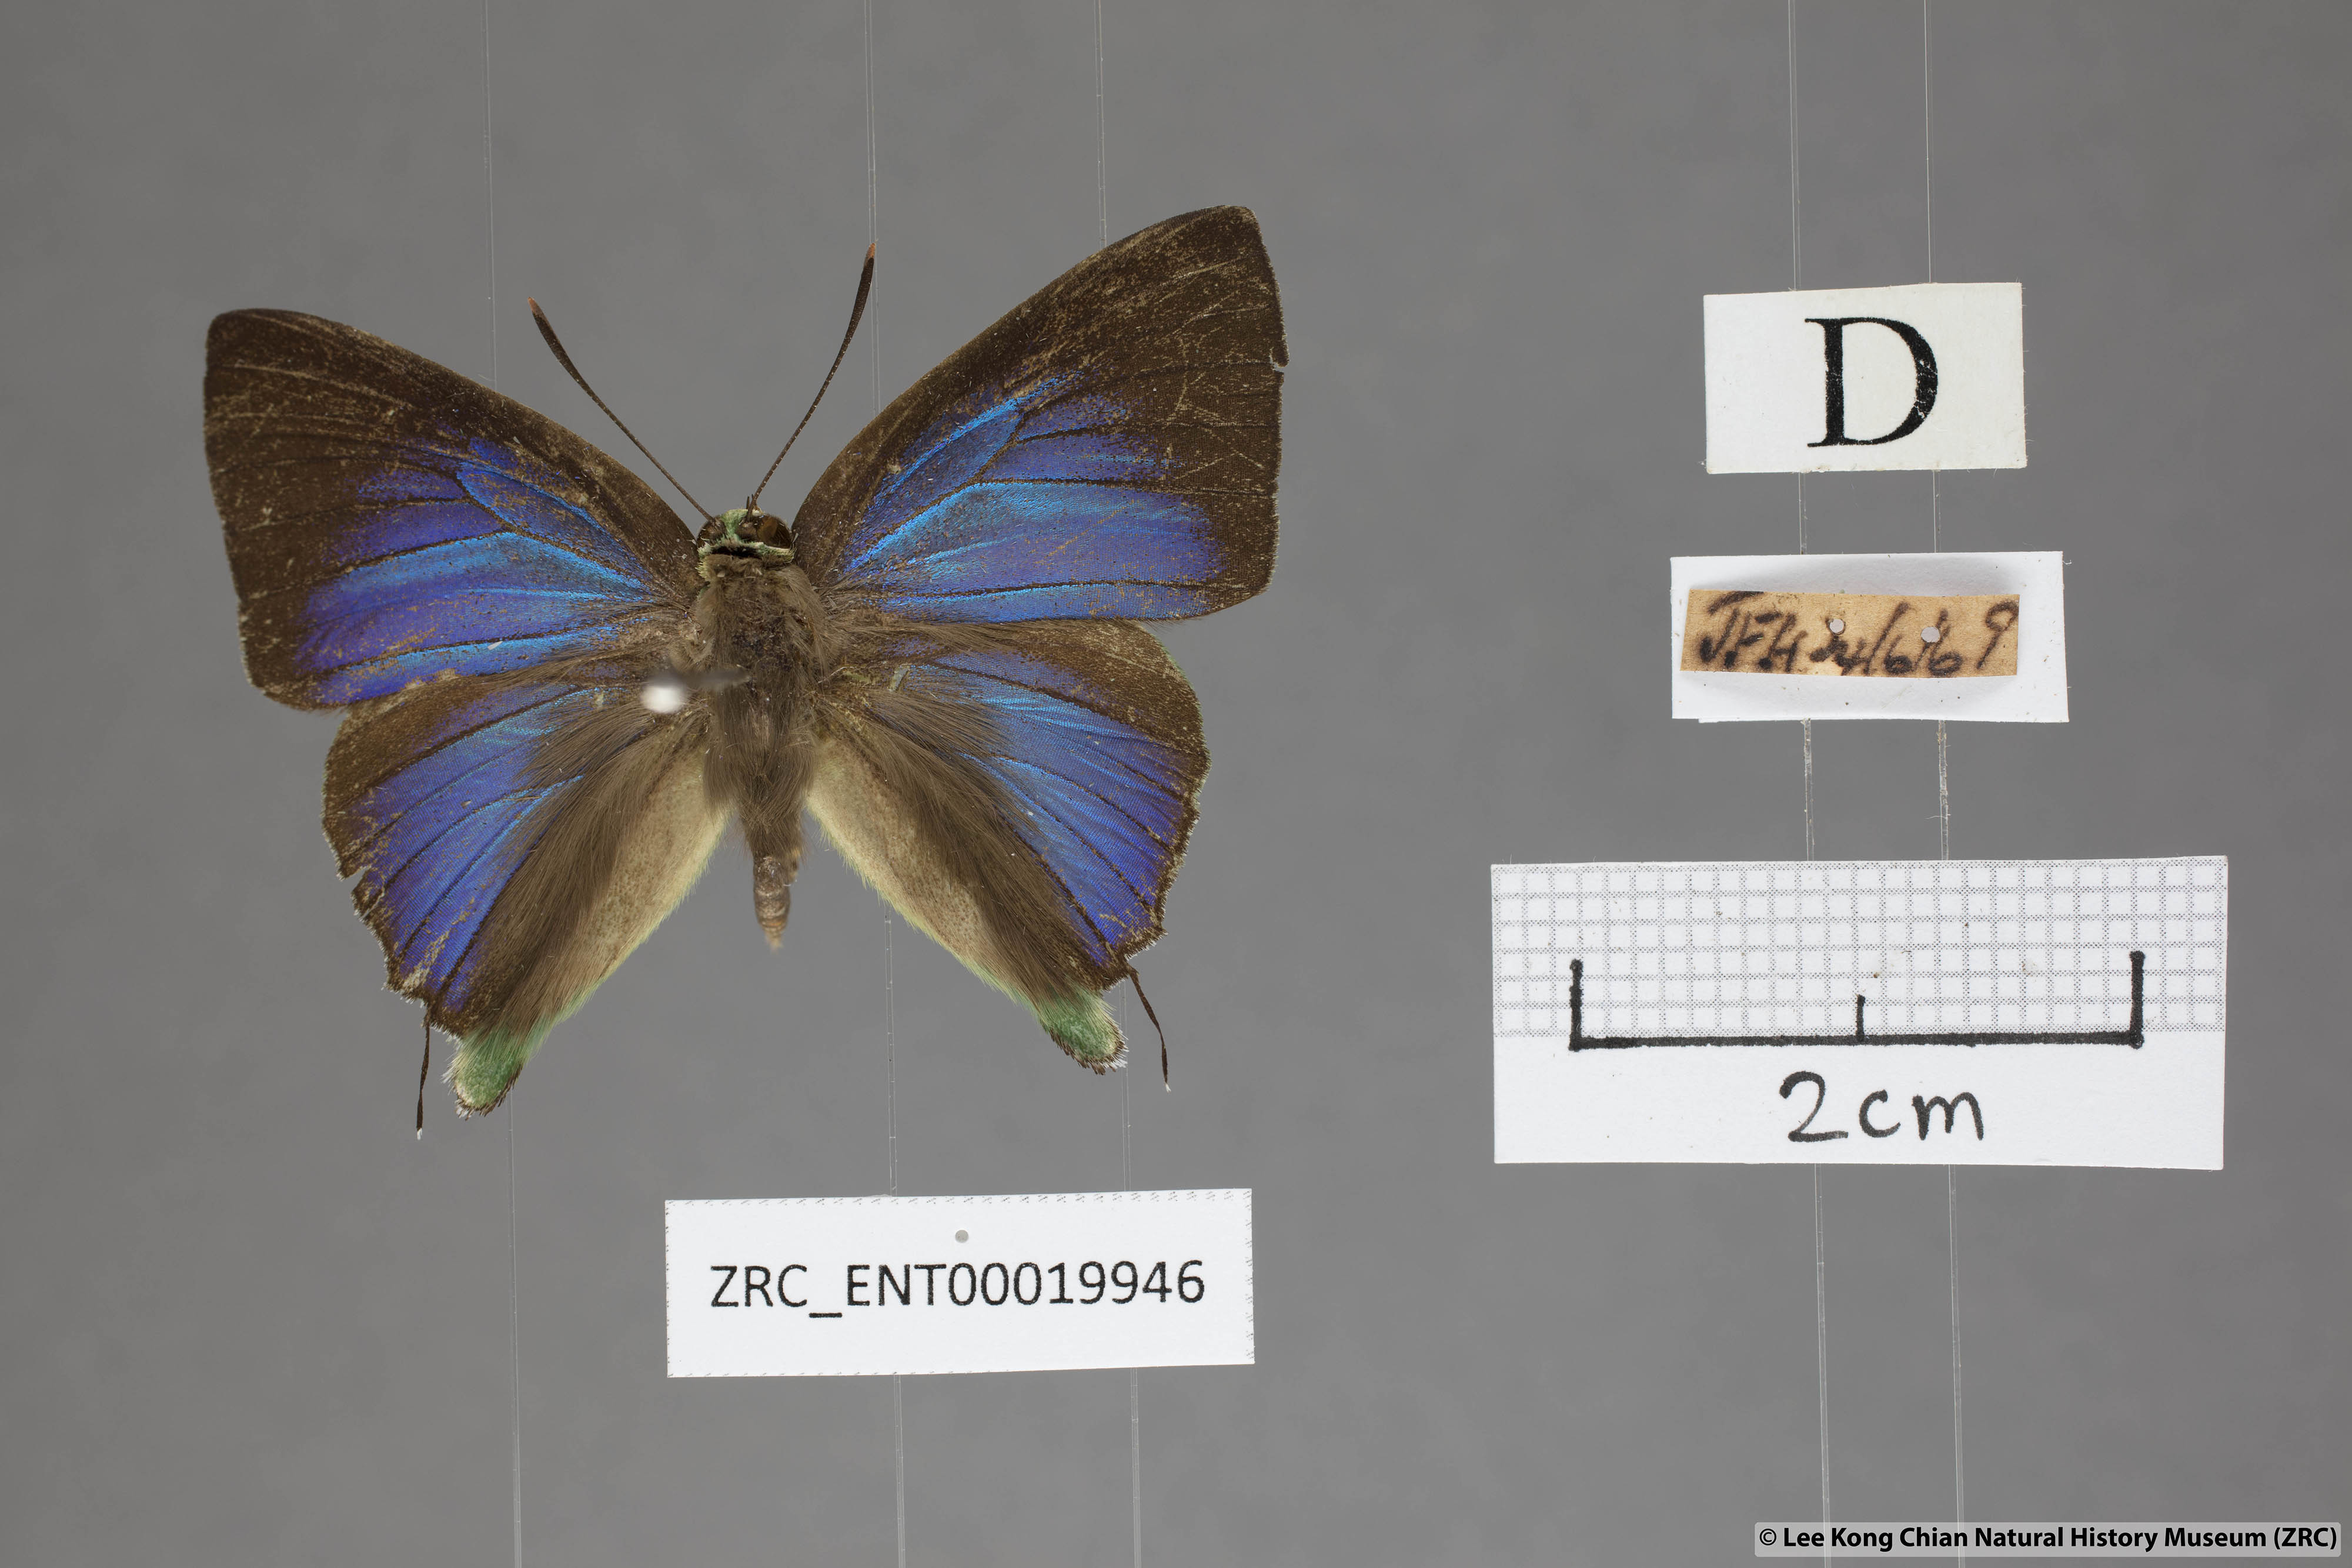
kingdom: Animalia
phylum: Arthropoda
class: Insecta
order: Lepidoptera
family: Lycaenidae
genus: Artipe
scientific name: Artipe eryx
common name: Green flash
